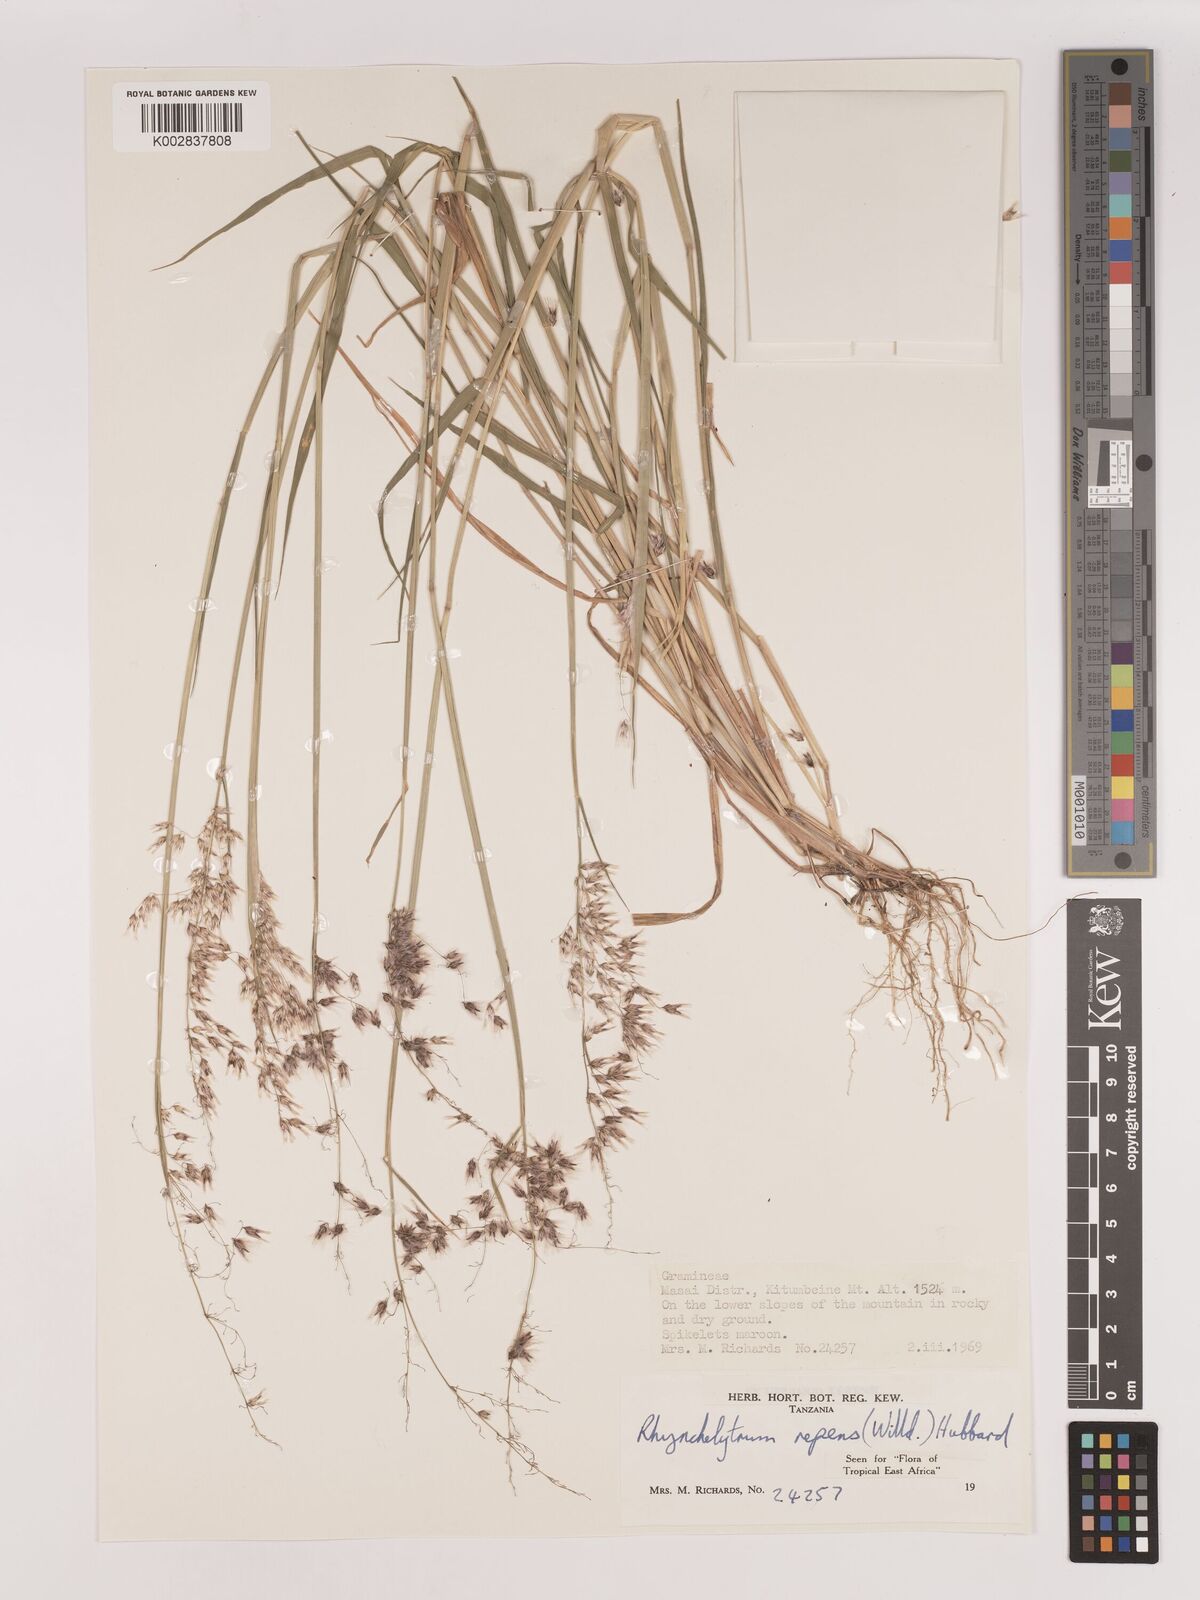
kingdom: Plantae
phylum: Tracheophyta
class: Liliopsida
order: Poales
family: Poaceae
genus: Melinis
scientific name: Melinis repens
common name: Rose natal grass
